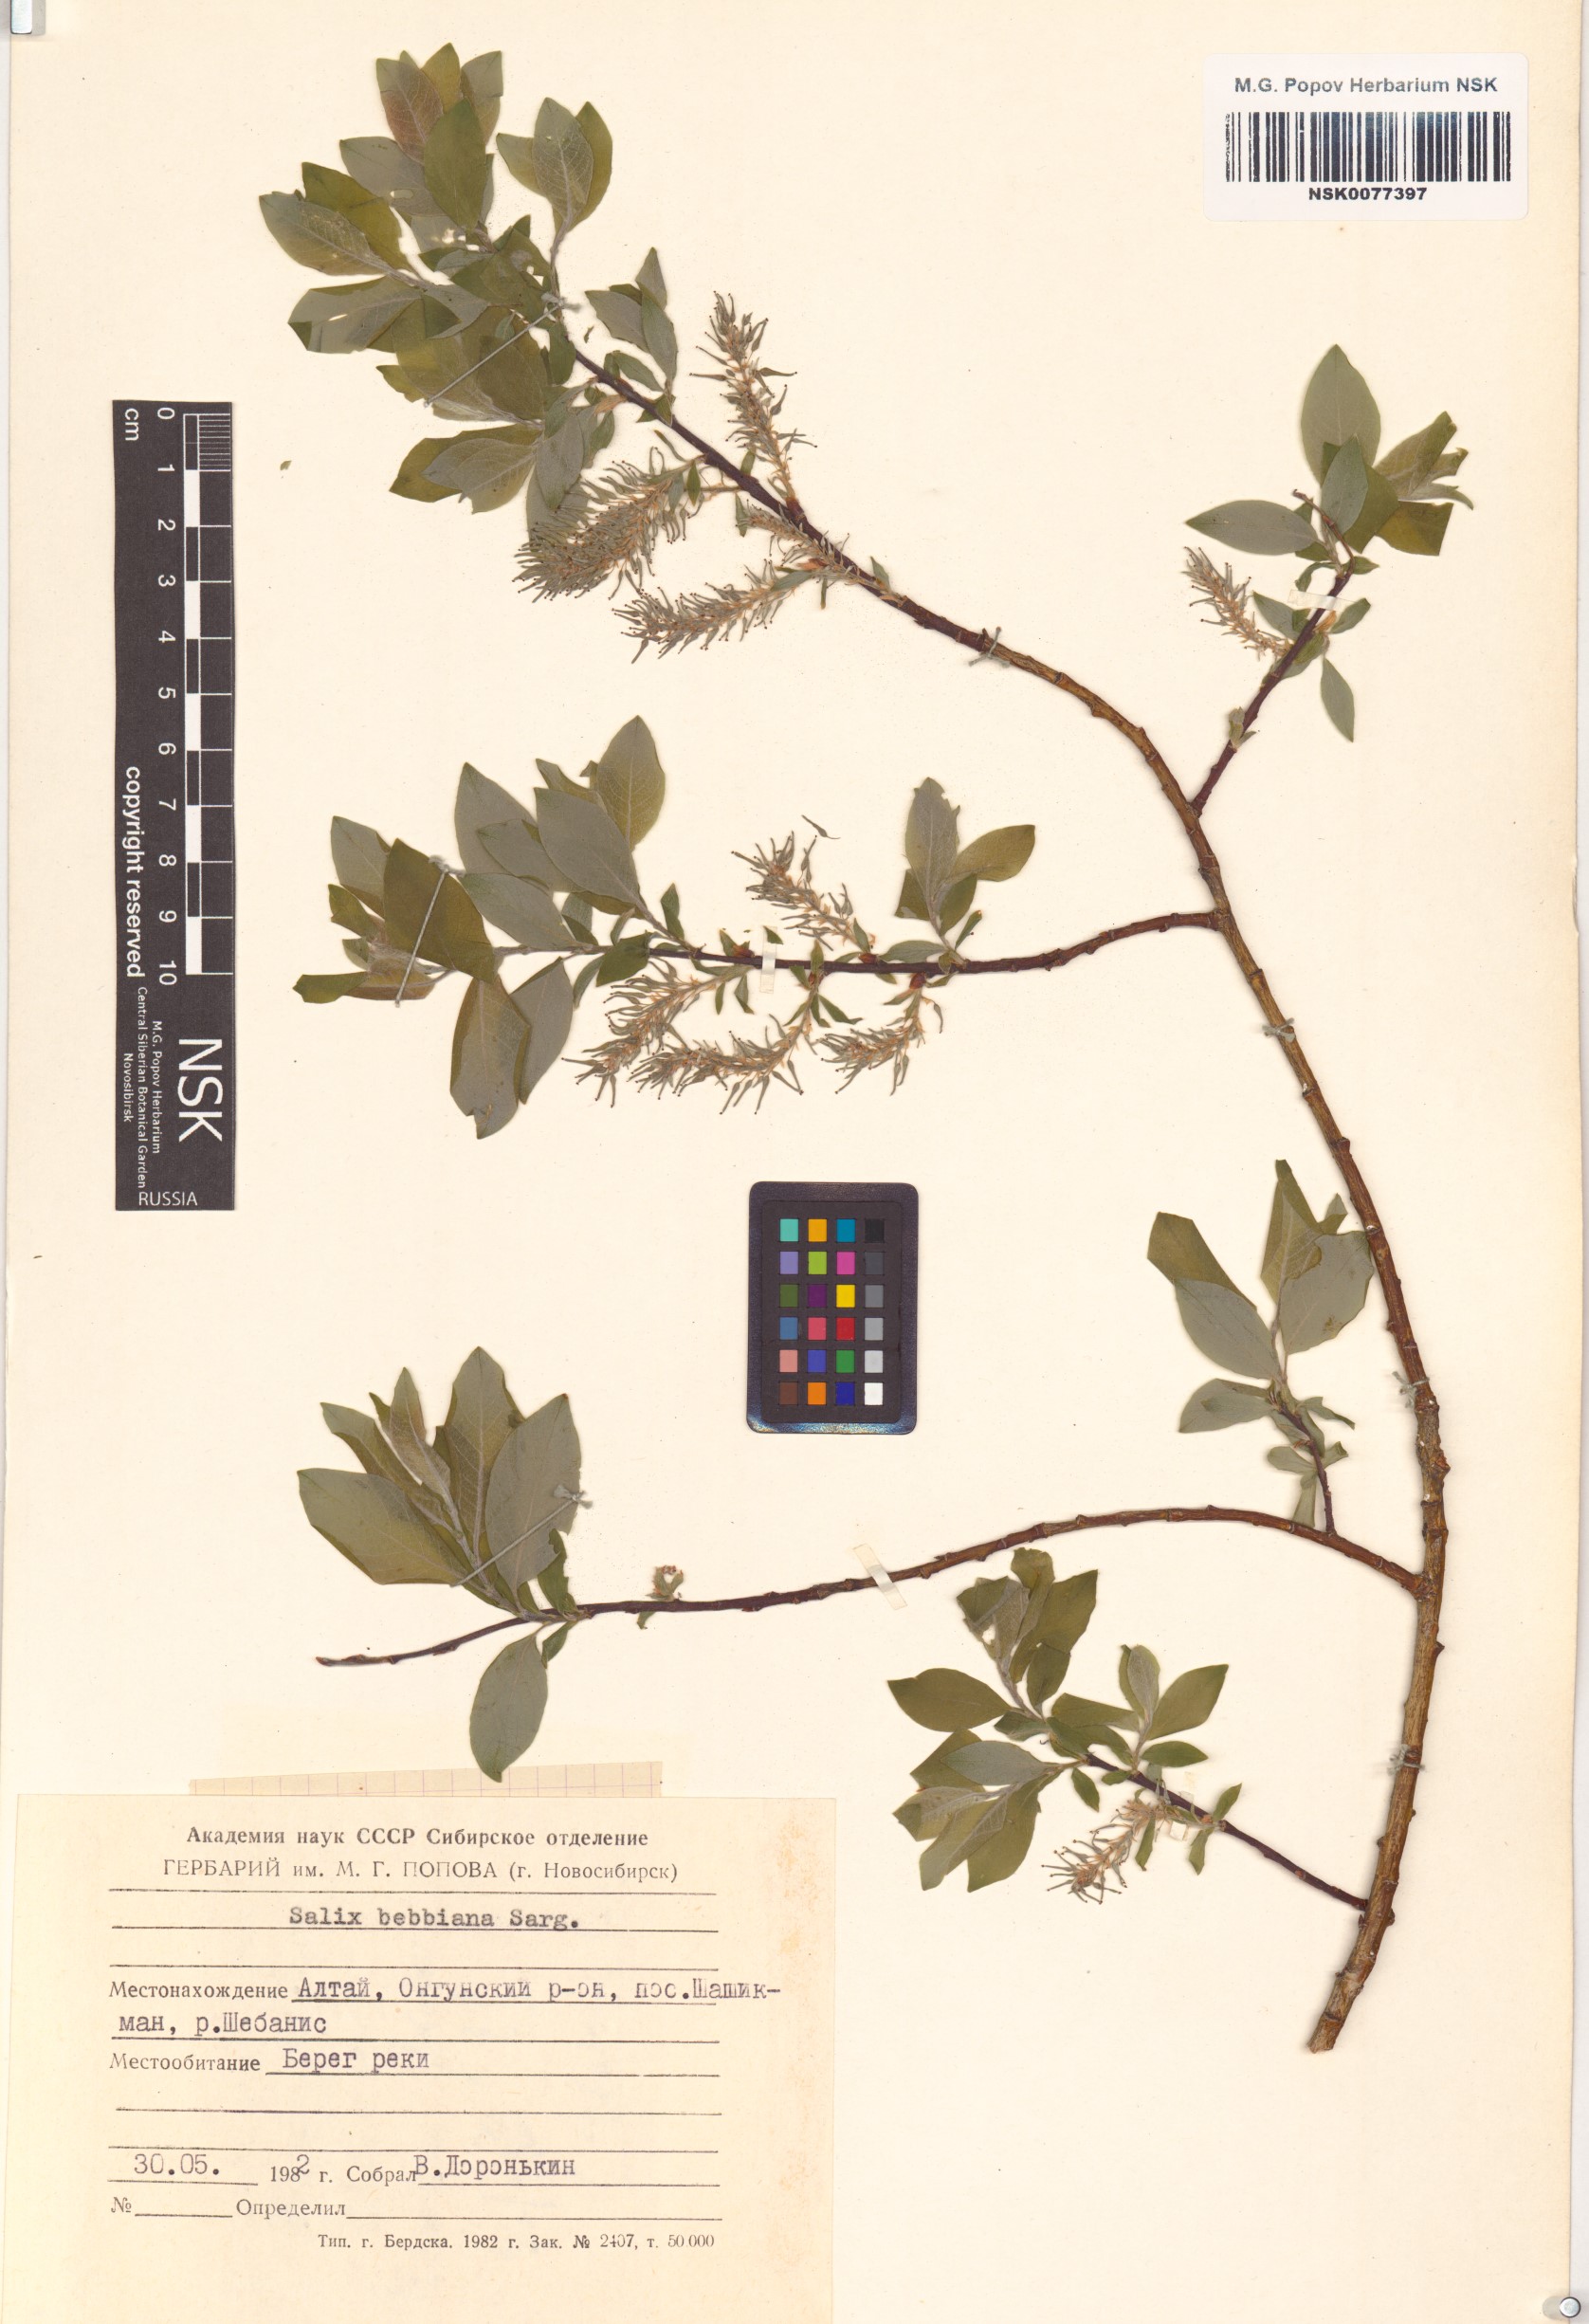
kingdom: Plantae
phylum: Tracheophyta
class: Magnoliopsida
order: Malpighiales
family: Salicaceae
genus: Salix
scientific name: Salix bebbiana
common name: Bebb's willow
